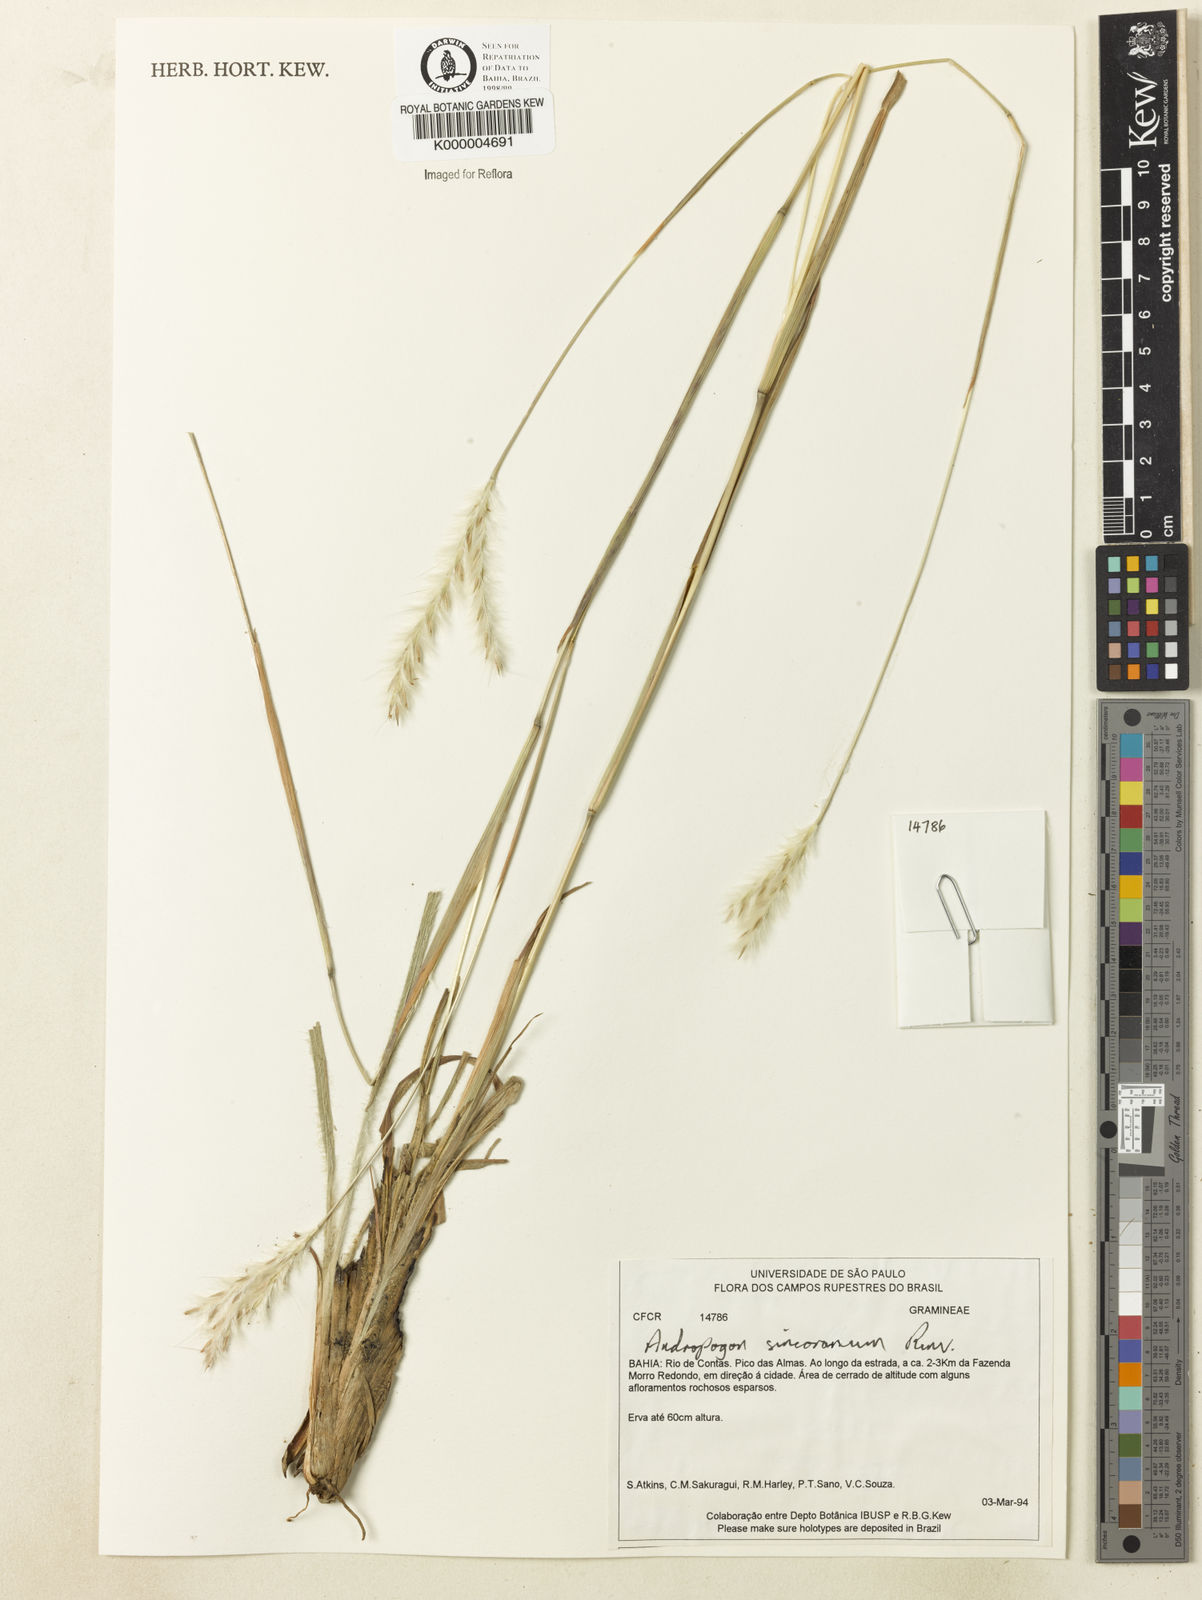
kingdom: Plantae
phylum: Tracheophyta
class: Liliopsida
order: Poales
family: Poaceae
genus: Andropogon
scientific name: Andropogon ingratus
